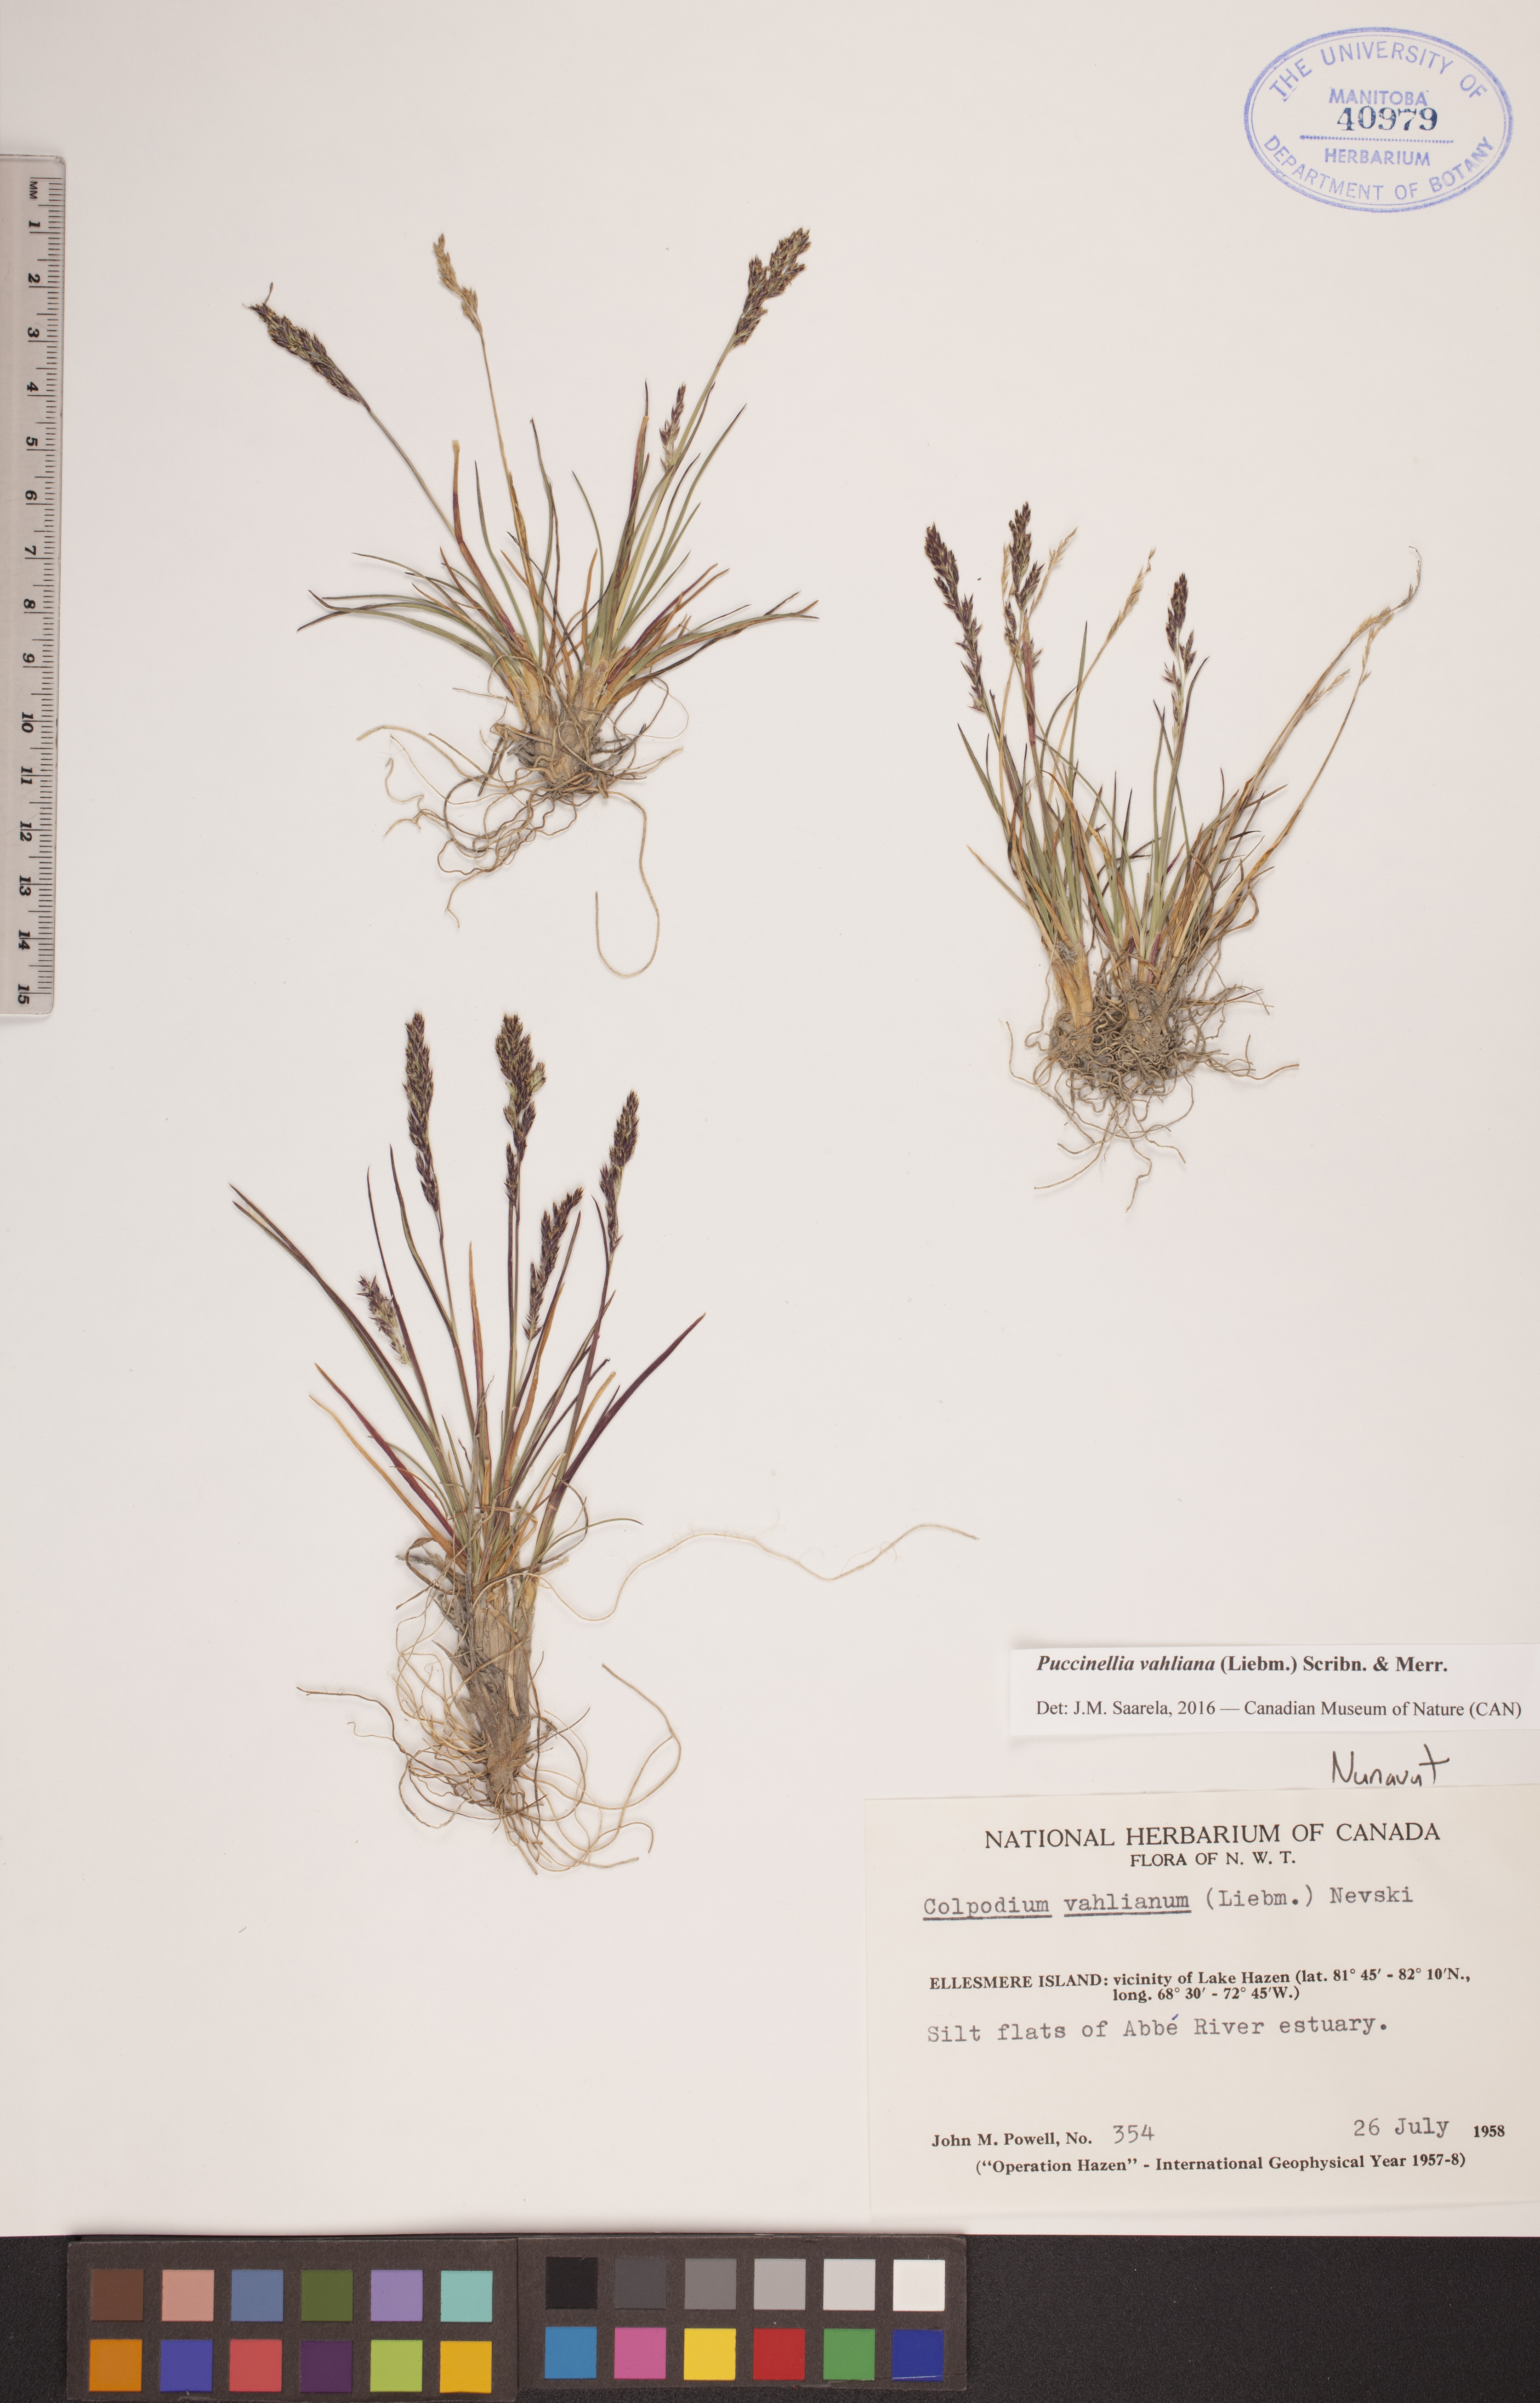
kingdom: Plantae
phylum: Tracheophyta
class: Liliopsida
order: Poales
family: Poaceae
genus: Puccinellia
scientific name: Puccinellia vahliana
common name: Vahl's alkaligrass
